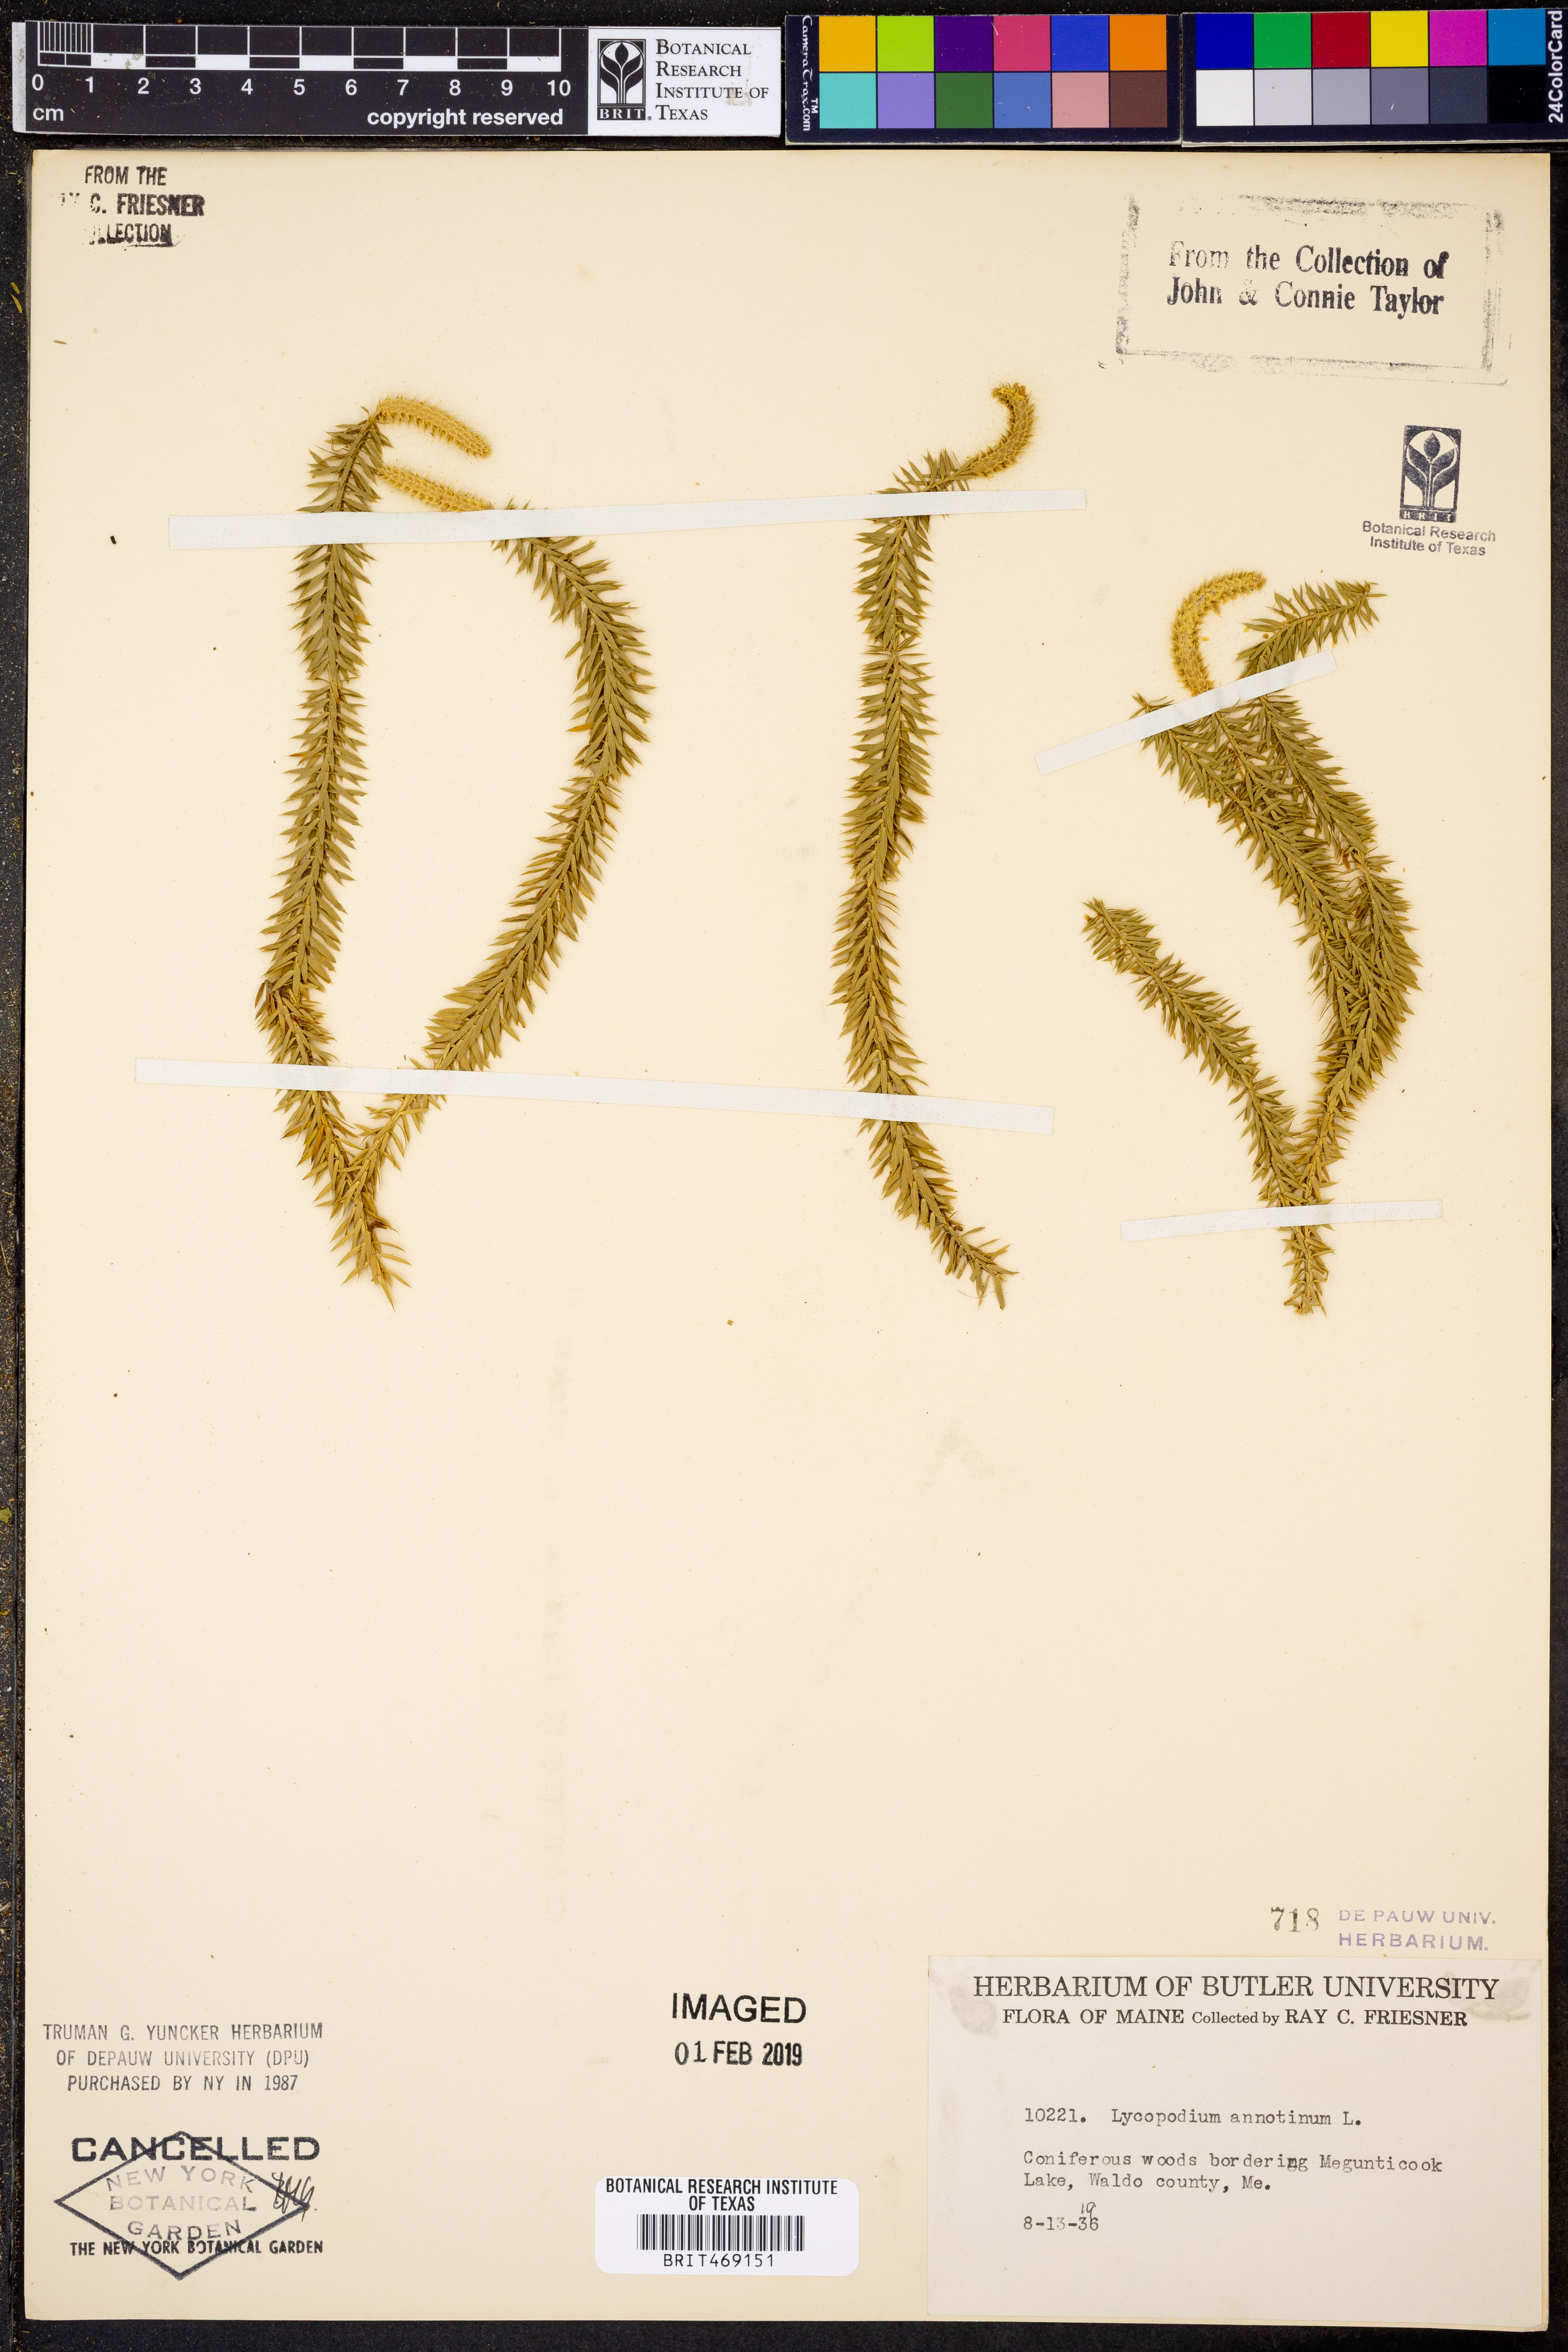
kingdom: Plantae
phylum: Tracheophyta
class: Lycopodiopsida
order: Lycopodiales
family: Lycopodiaceae
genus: Spinulum
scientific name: Spinulum annotinum
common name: Interrupted club-moss
